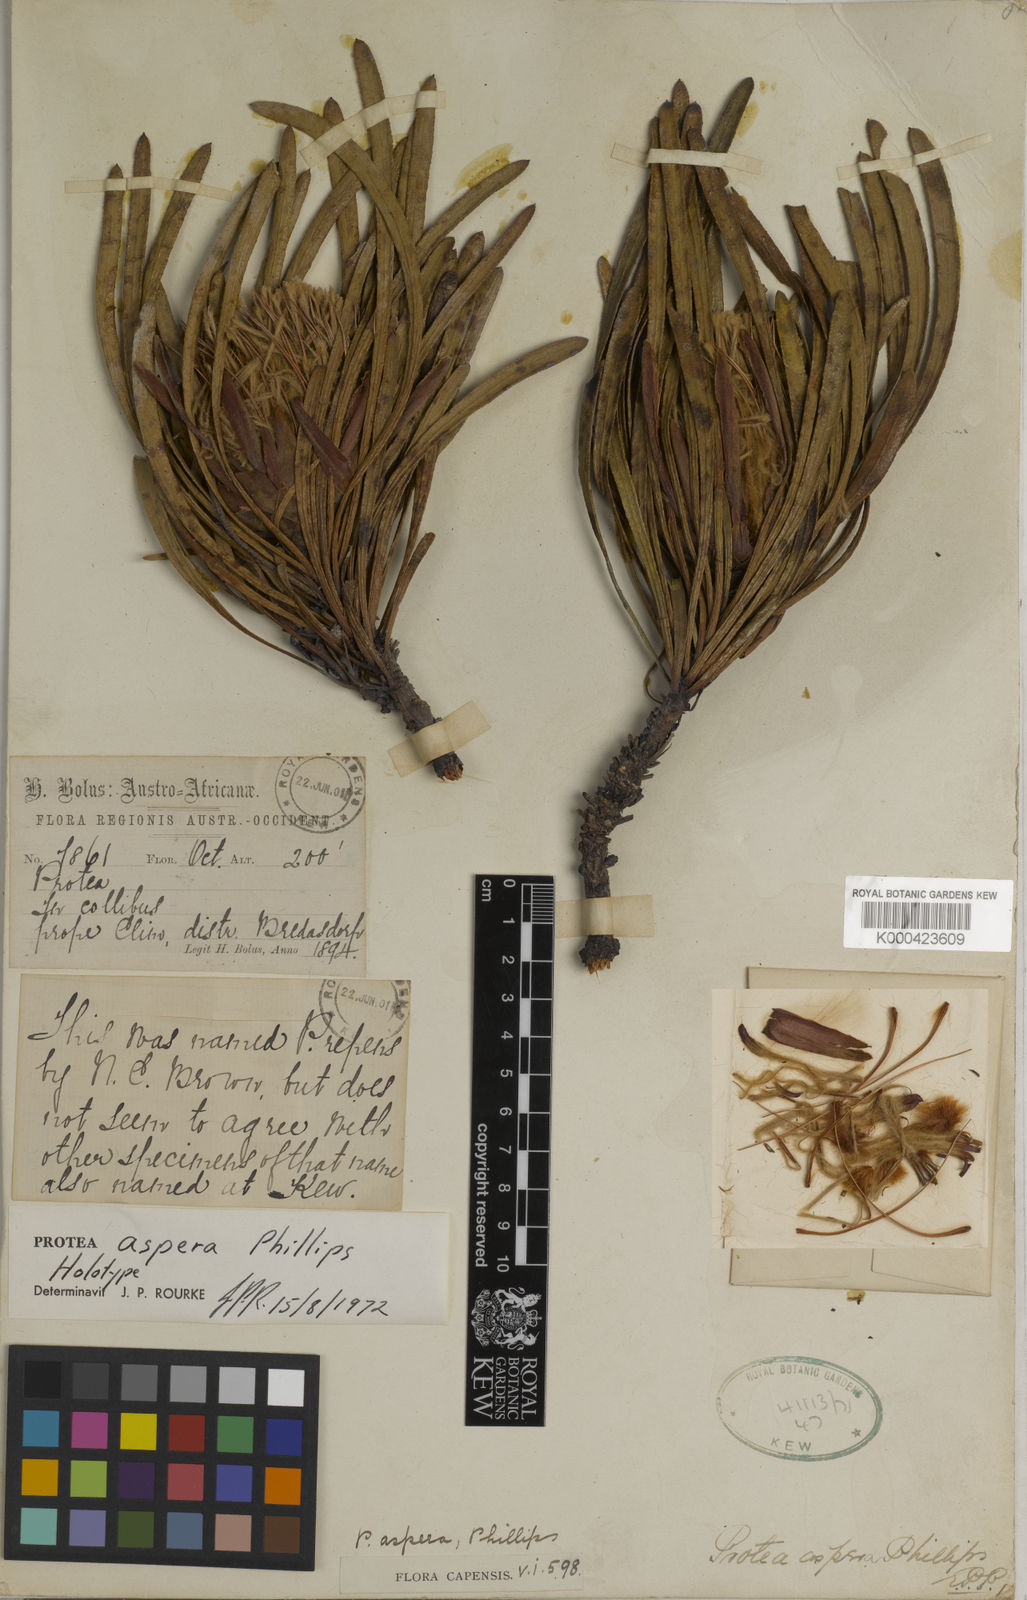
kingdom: Plantae
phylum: Tracheophyta
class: Magnoliopsida
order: Proteales
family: Proteaceae
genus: Protea
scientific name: Protea aspera
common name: Rough-leaf sugarbush
